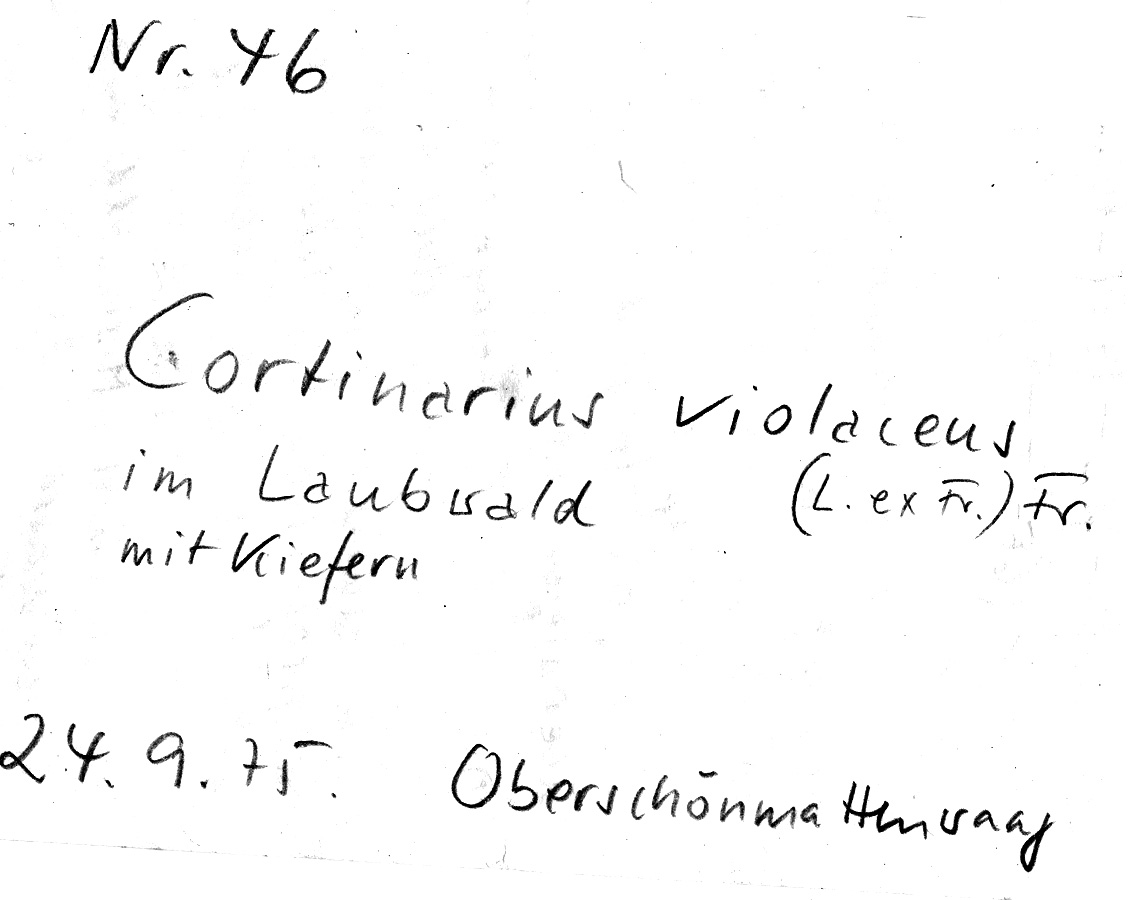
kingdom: Fungi
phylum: Basidiomycota
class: Agaricomycetes
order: Agaricales
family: Cortinariaceae
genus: Cortinarius
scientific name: Cortinarius violaceus
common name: Violet webcap
